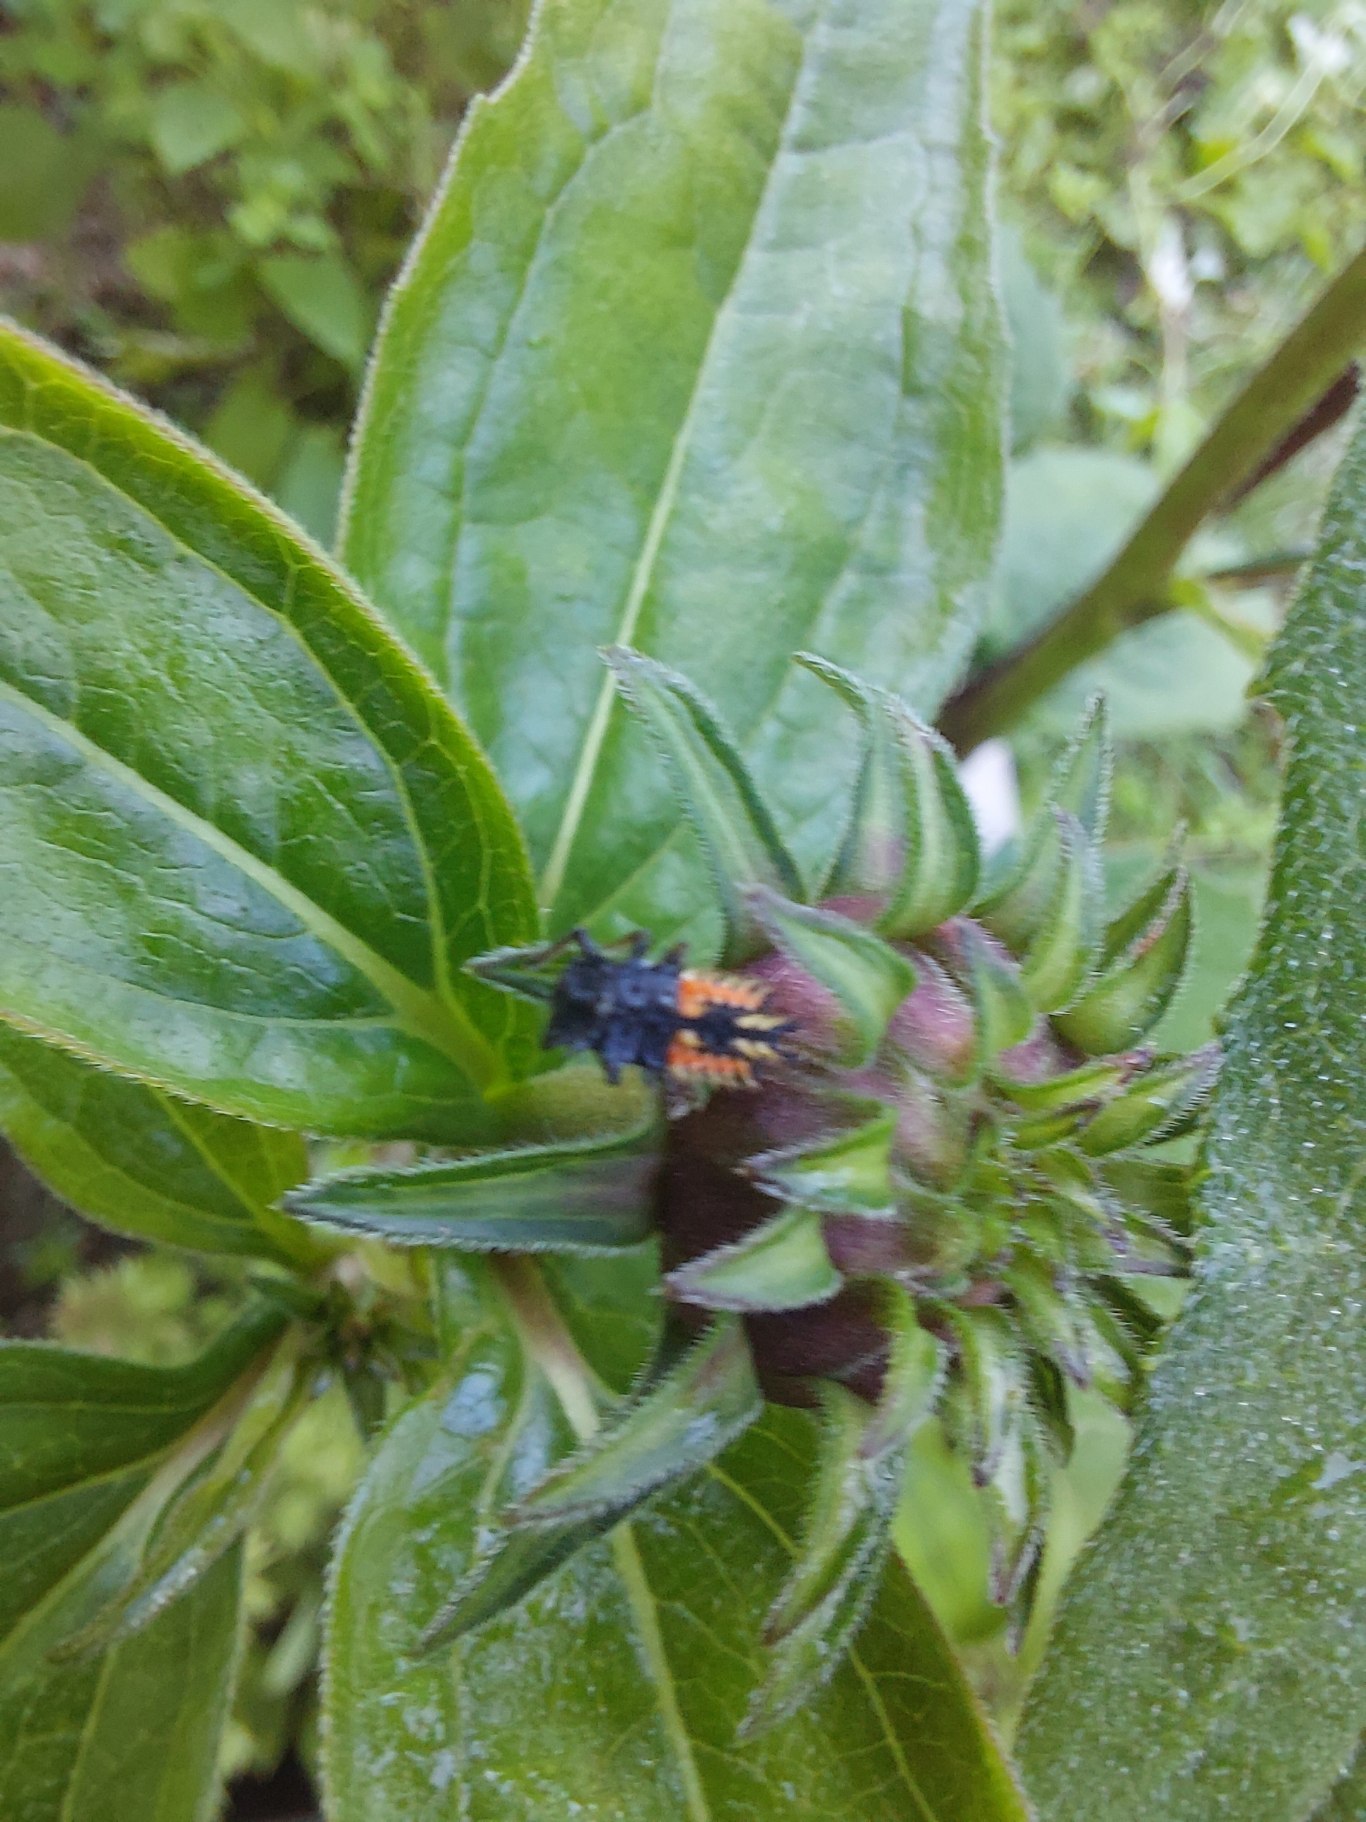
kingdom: Animalia
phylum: Arthropoda
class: Insecta
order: Coleoptera
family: Coccinellidae
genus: Harmonia
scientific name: Harmonia axyridis
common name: Harlekinmariehøne
